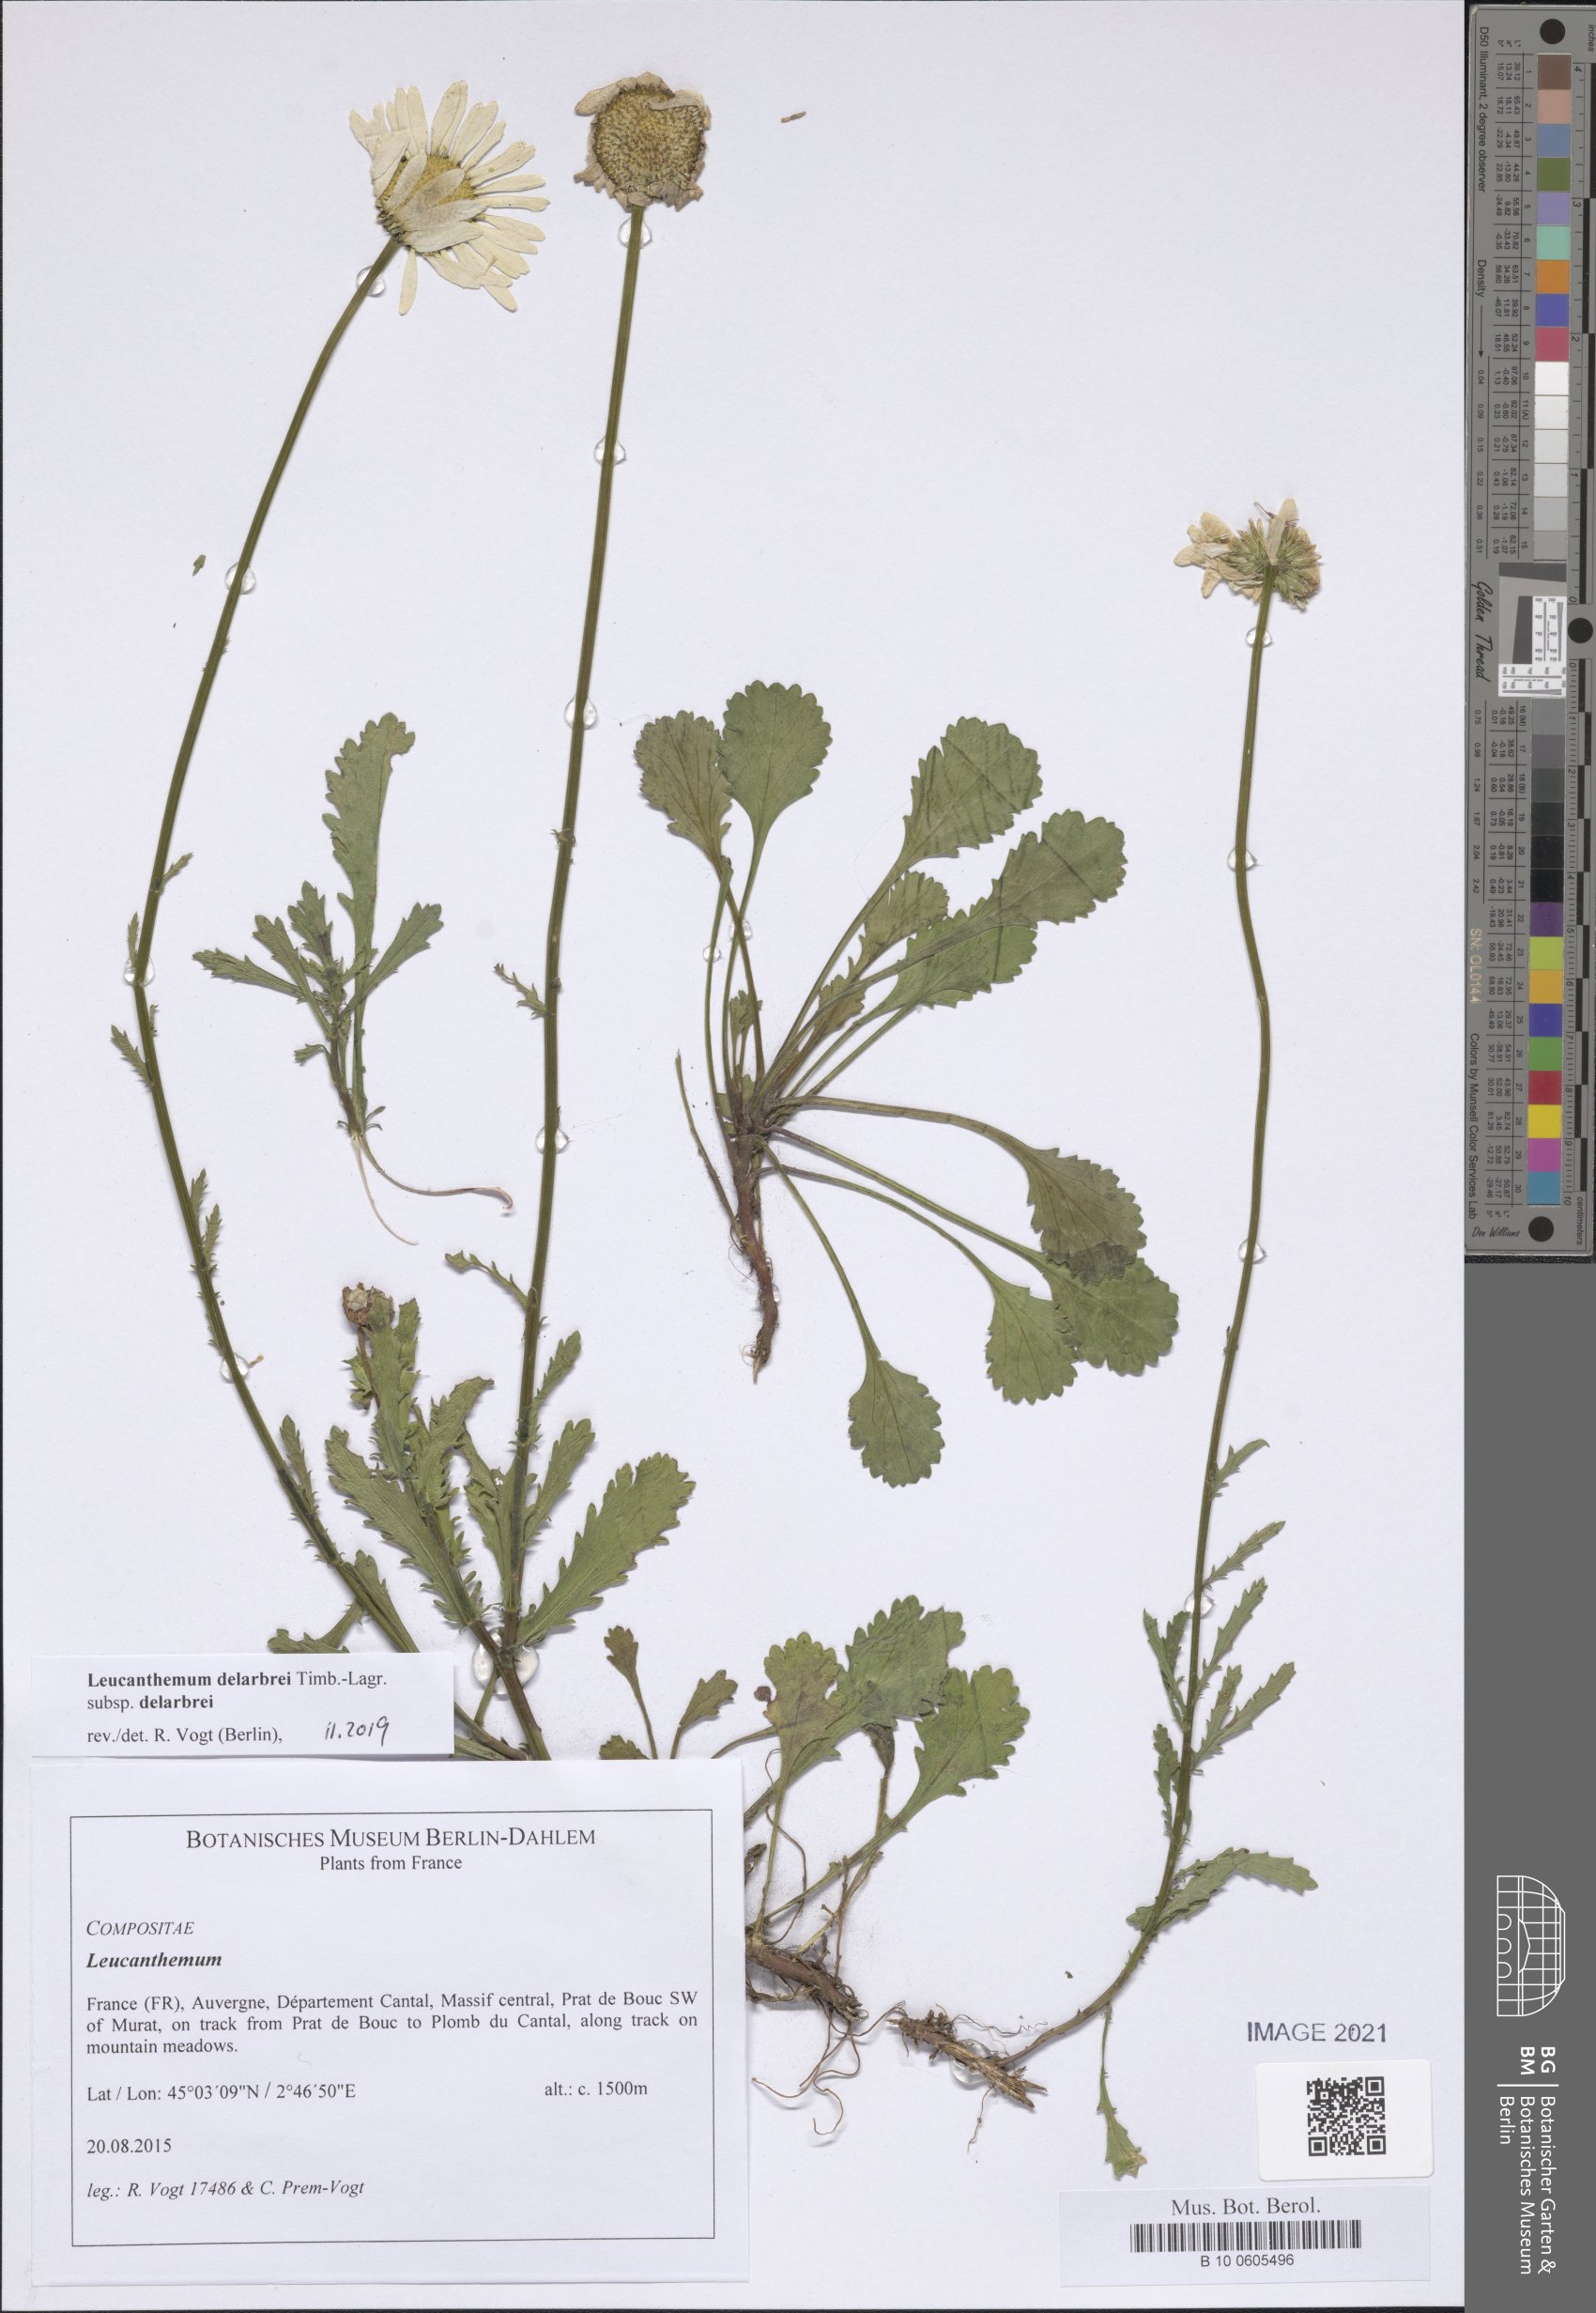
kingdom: Plantae
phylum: Tracheophyta
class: Magnoliopsida
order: Asterales
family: Asteraceae
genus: Leucanthemum
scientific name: Leucanthemum delarbrei
